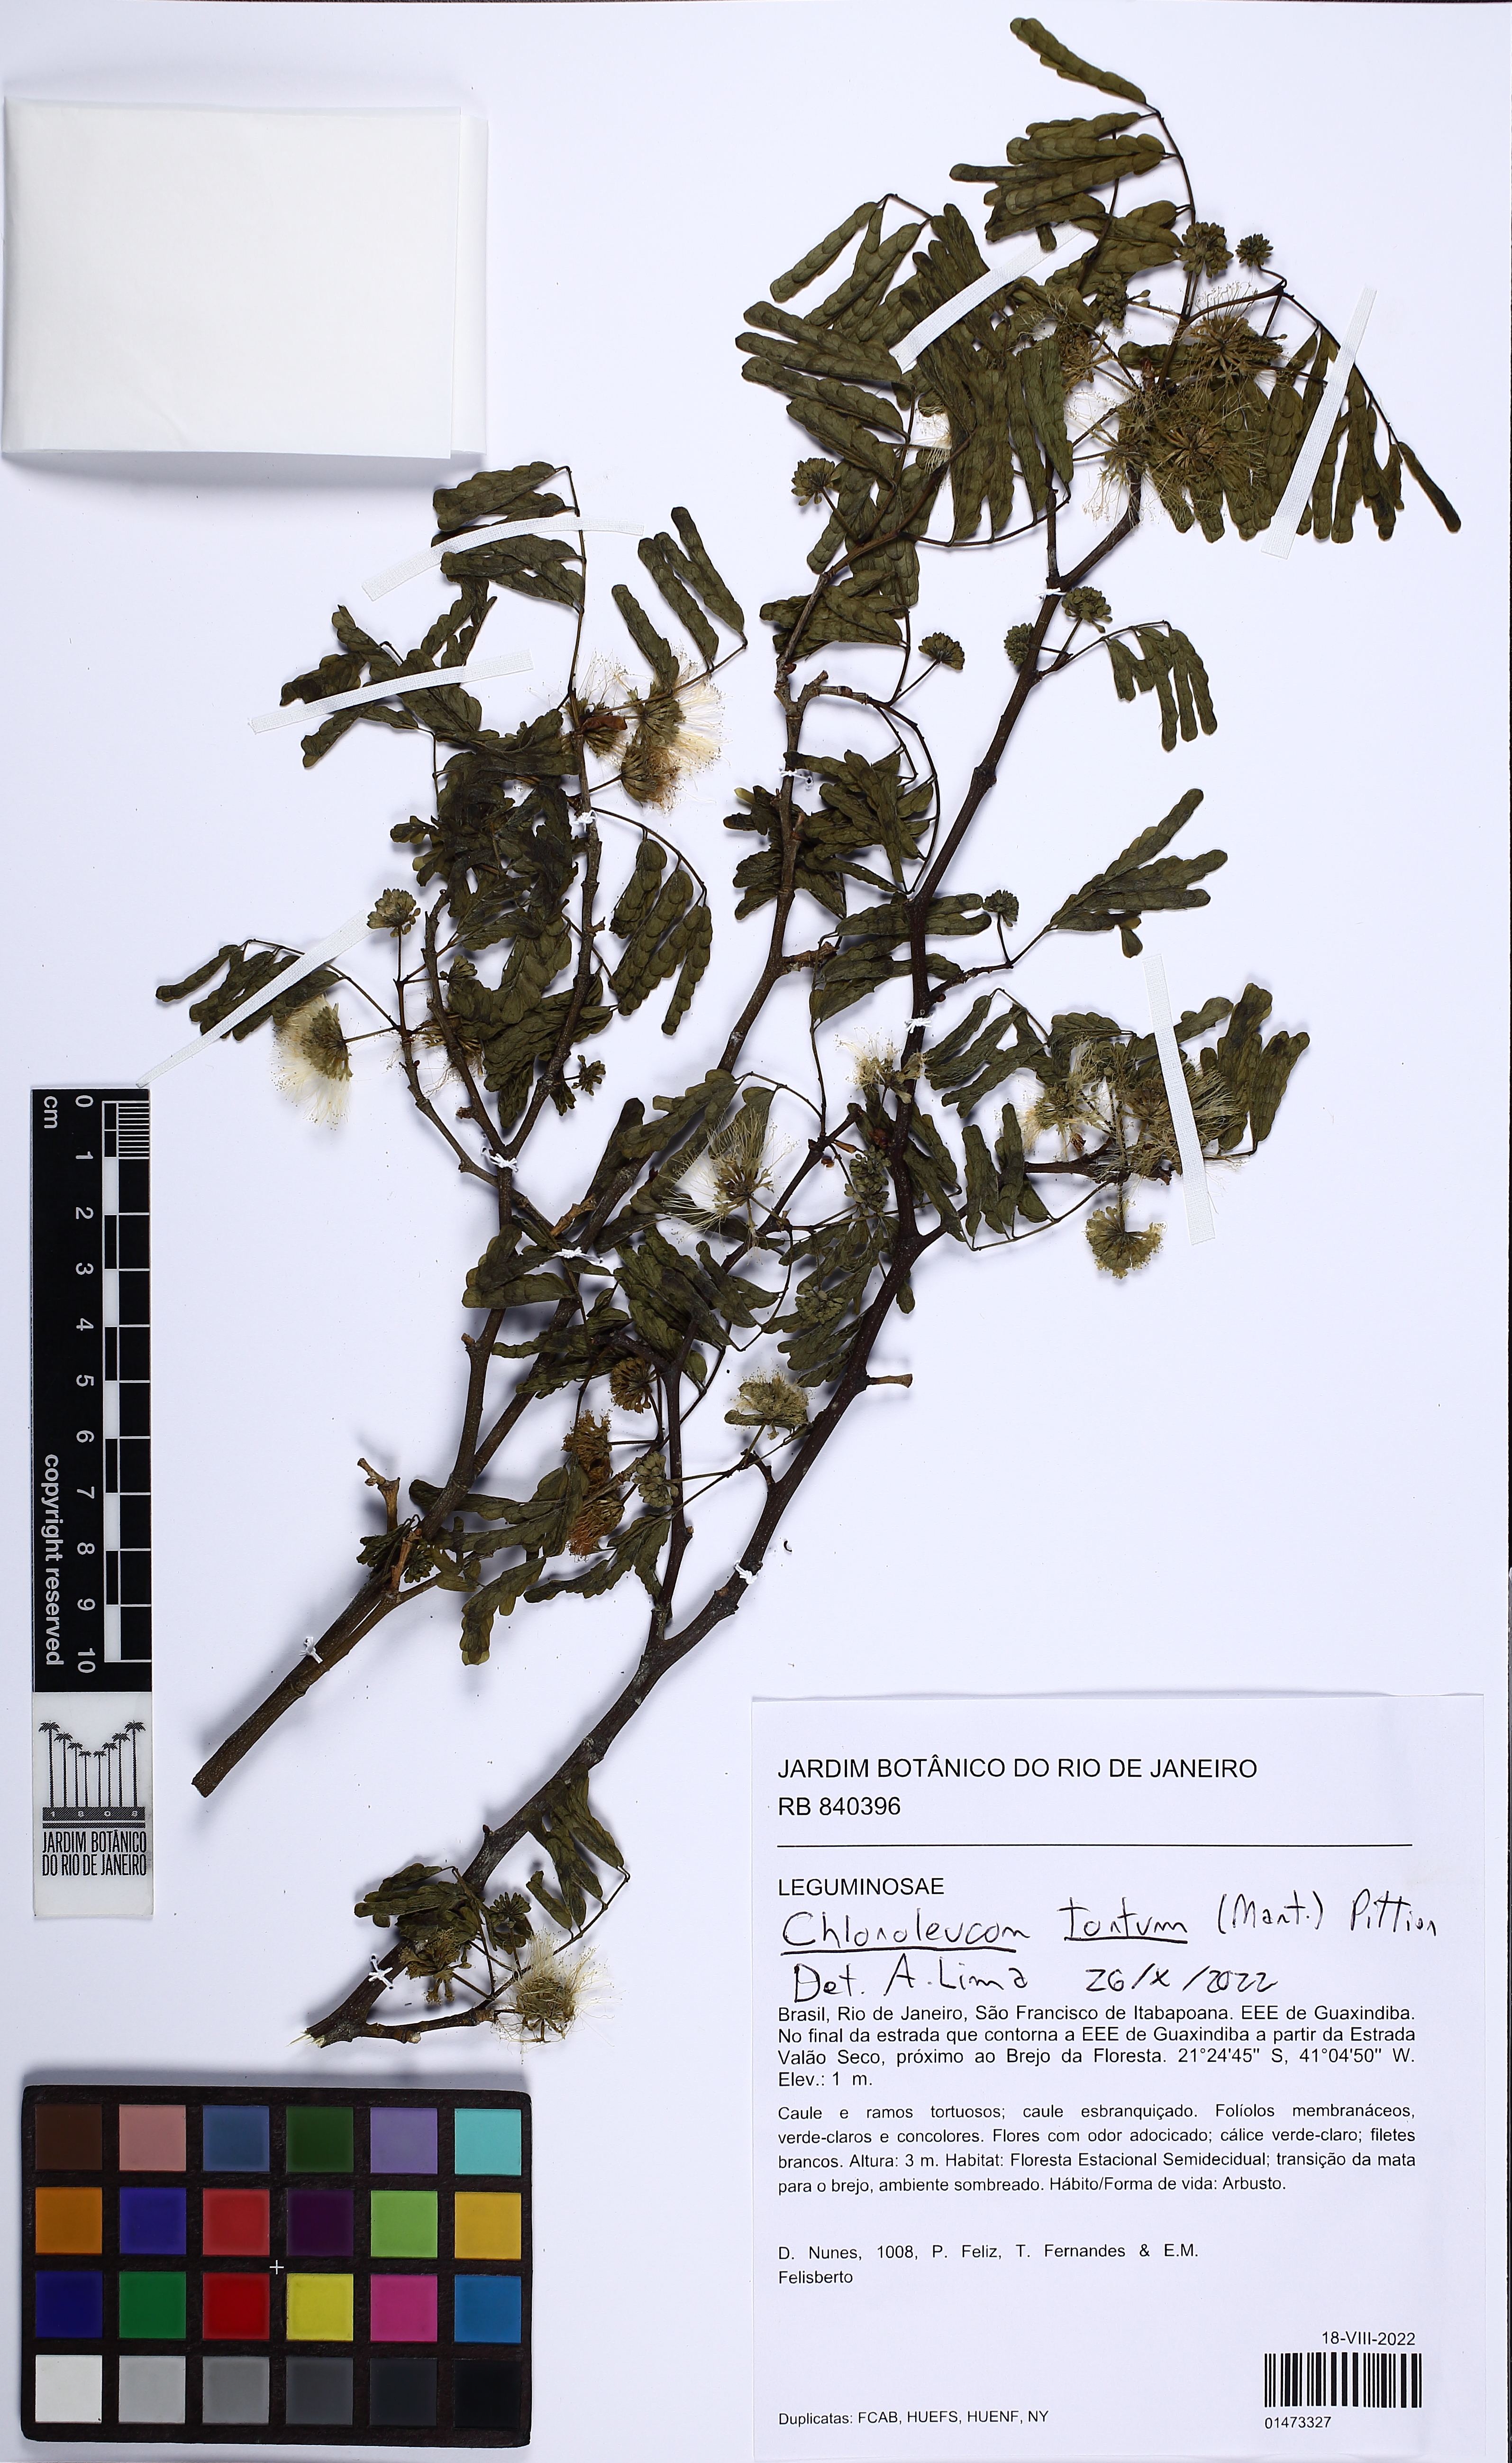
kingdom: Plantae
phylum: Tracheophyta
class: Magnoliopsida
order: Fabales
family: Fabaceae
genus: Chloroleucon
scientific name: Chloroleucon tortum
